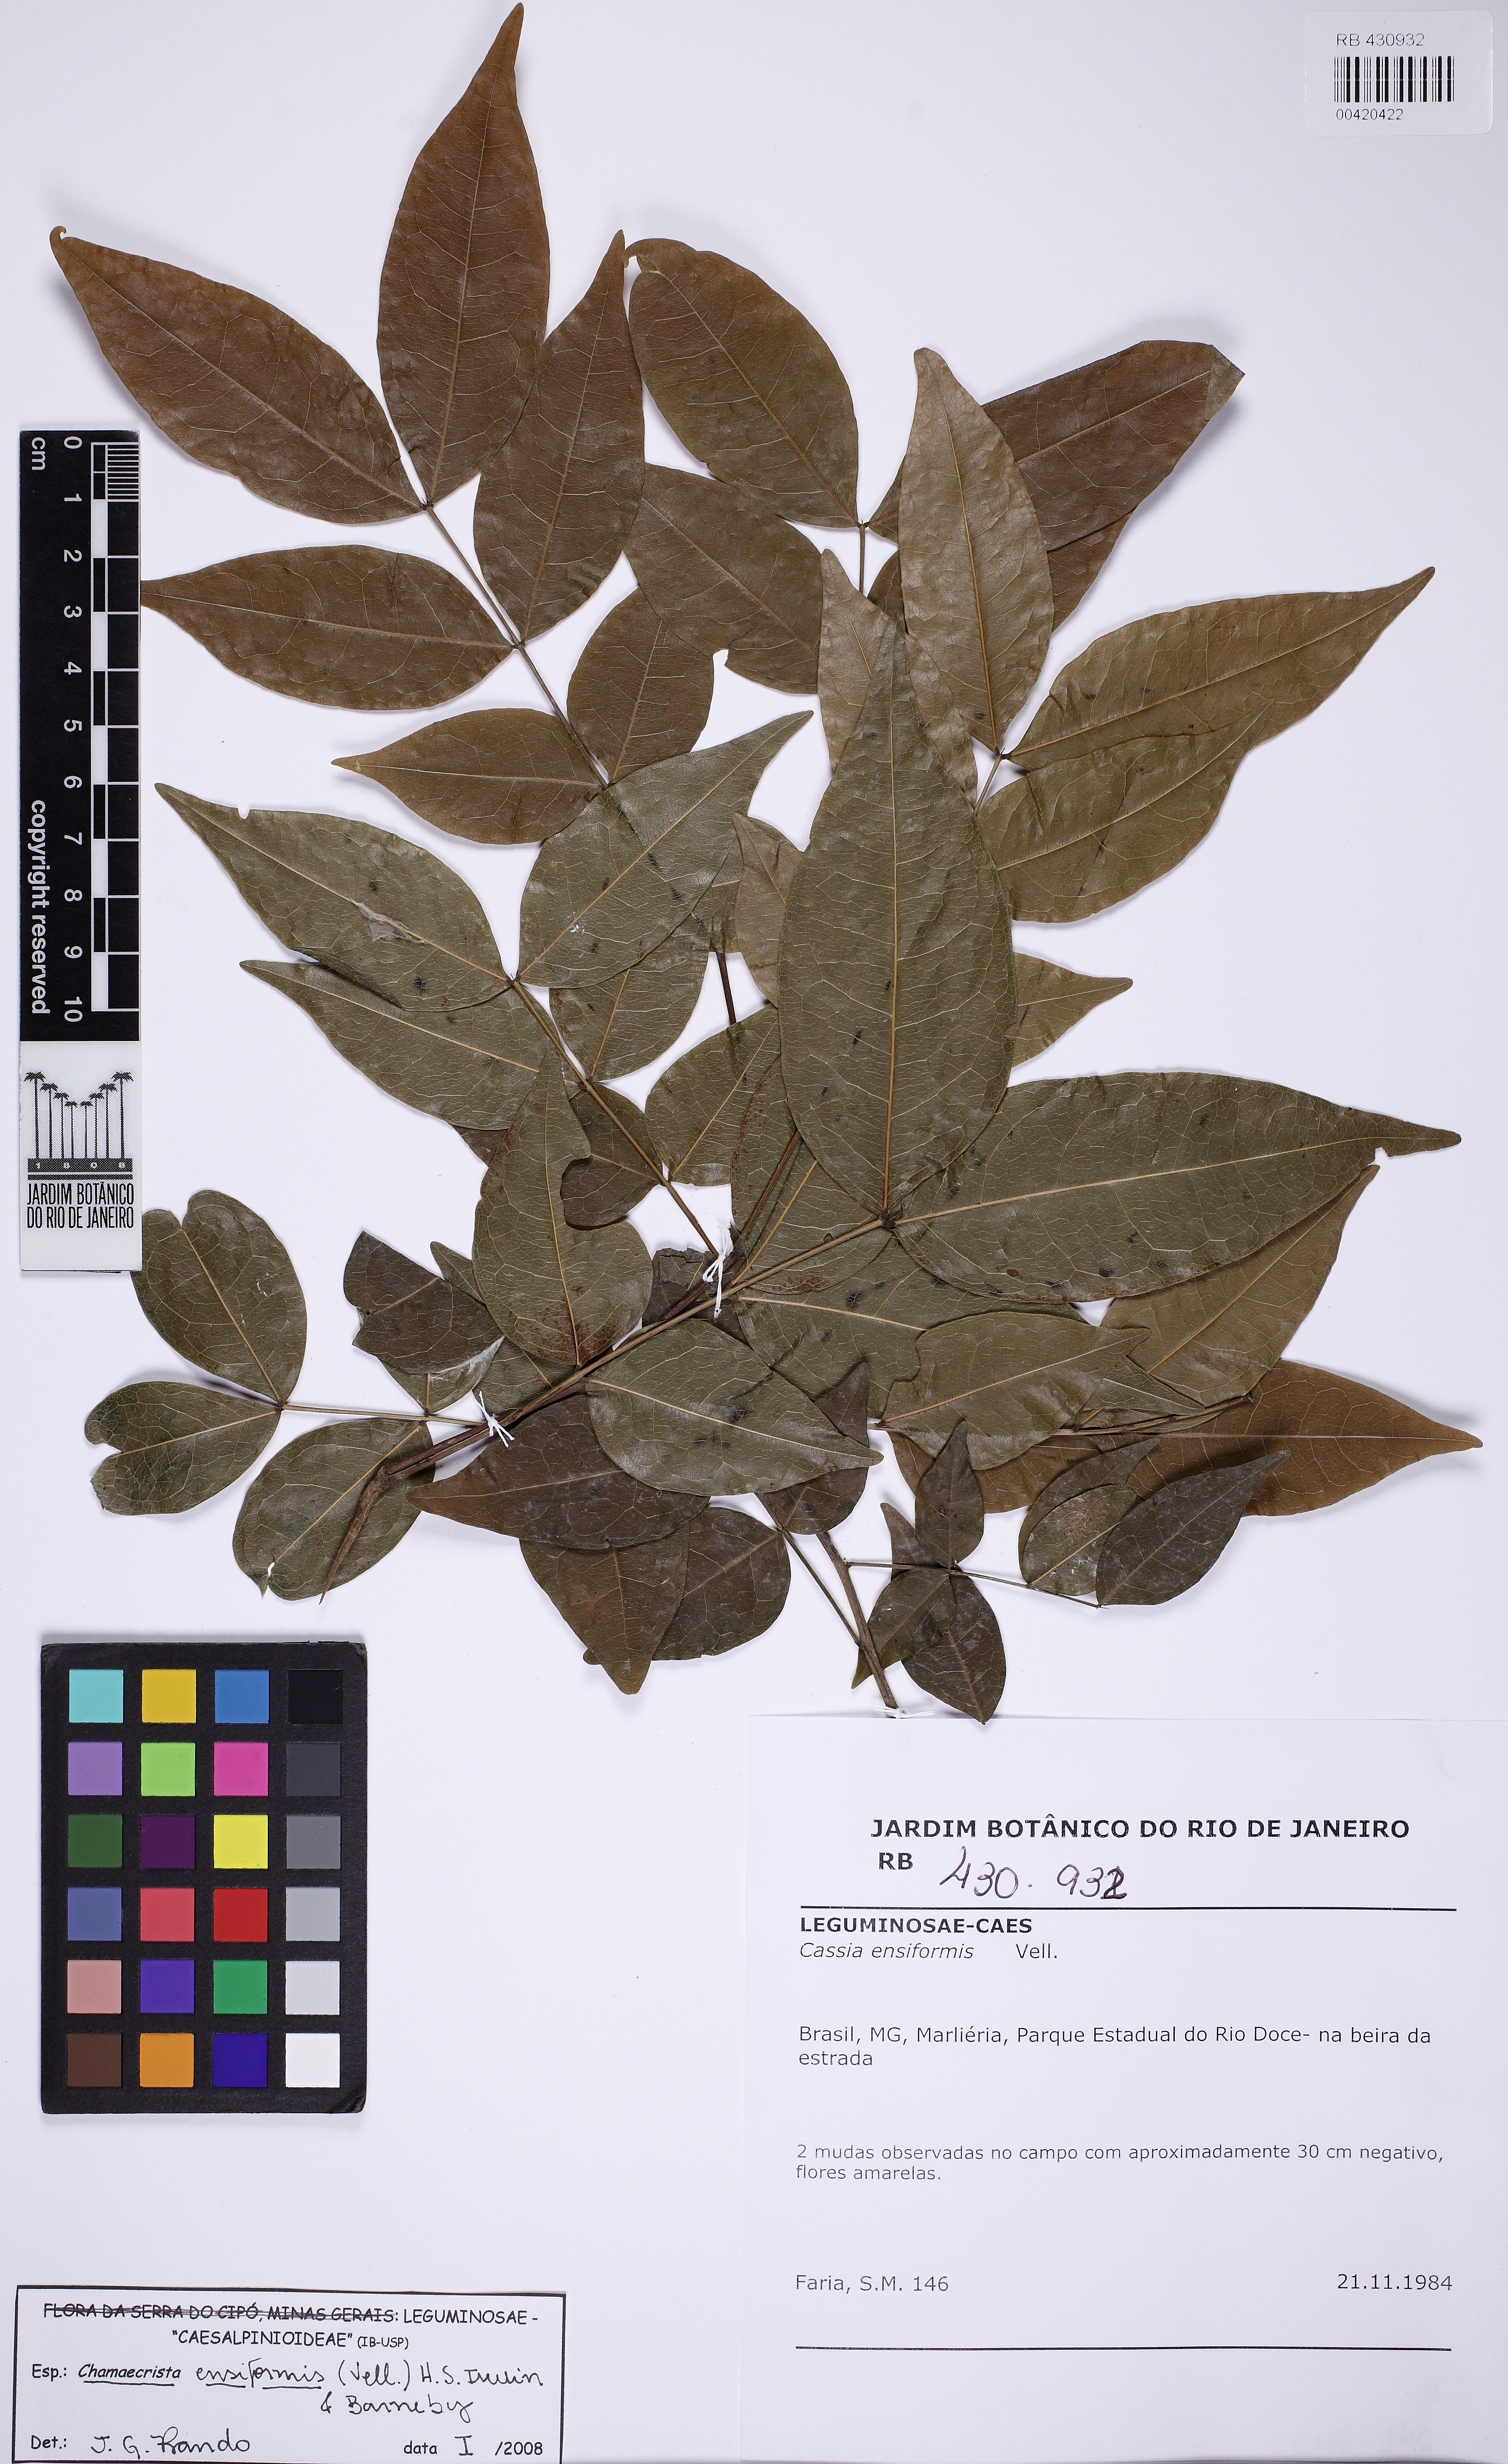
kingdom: Plantae
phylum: Tracheophyta
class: Magnoliopsida
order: Fabales
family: Fabaceae
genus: Chamaecrista
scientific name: Chamaecrista ensiformis
